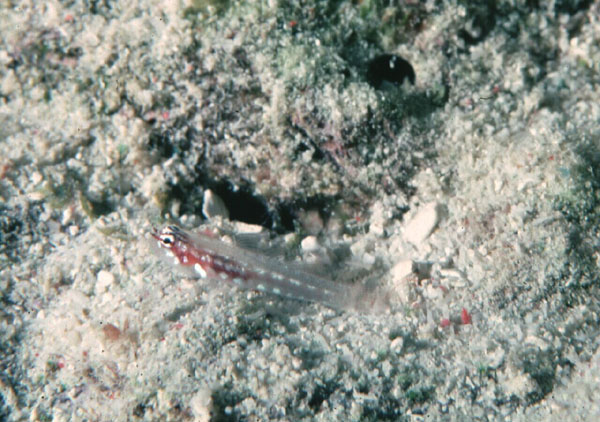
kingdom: Animalia
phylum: Chordata
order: Perciformes
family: Gobiidae
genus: Eviota
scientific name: Eviota prasites
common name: Hairfin eviota
